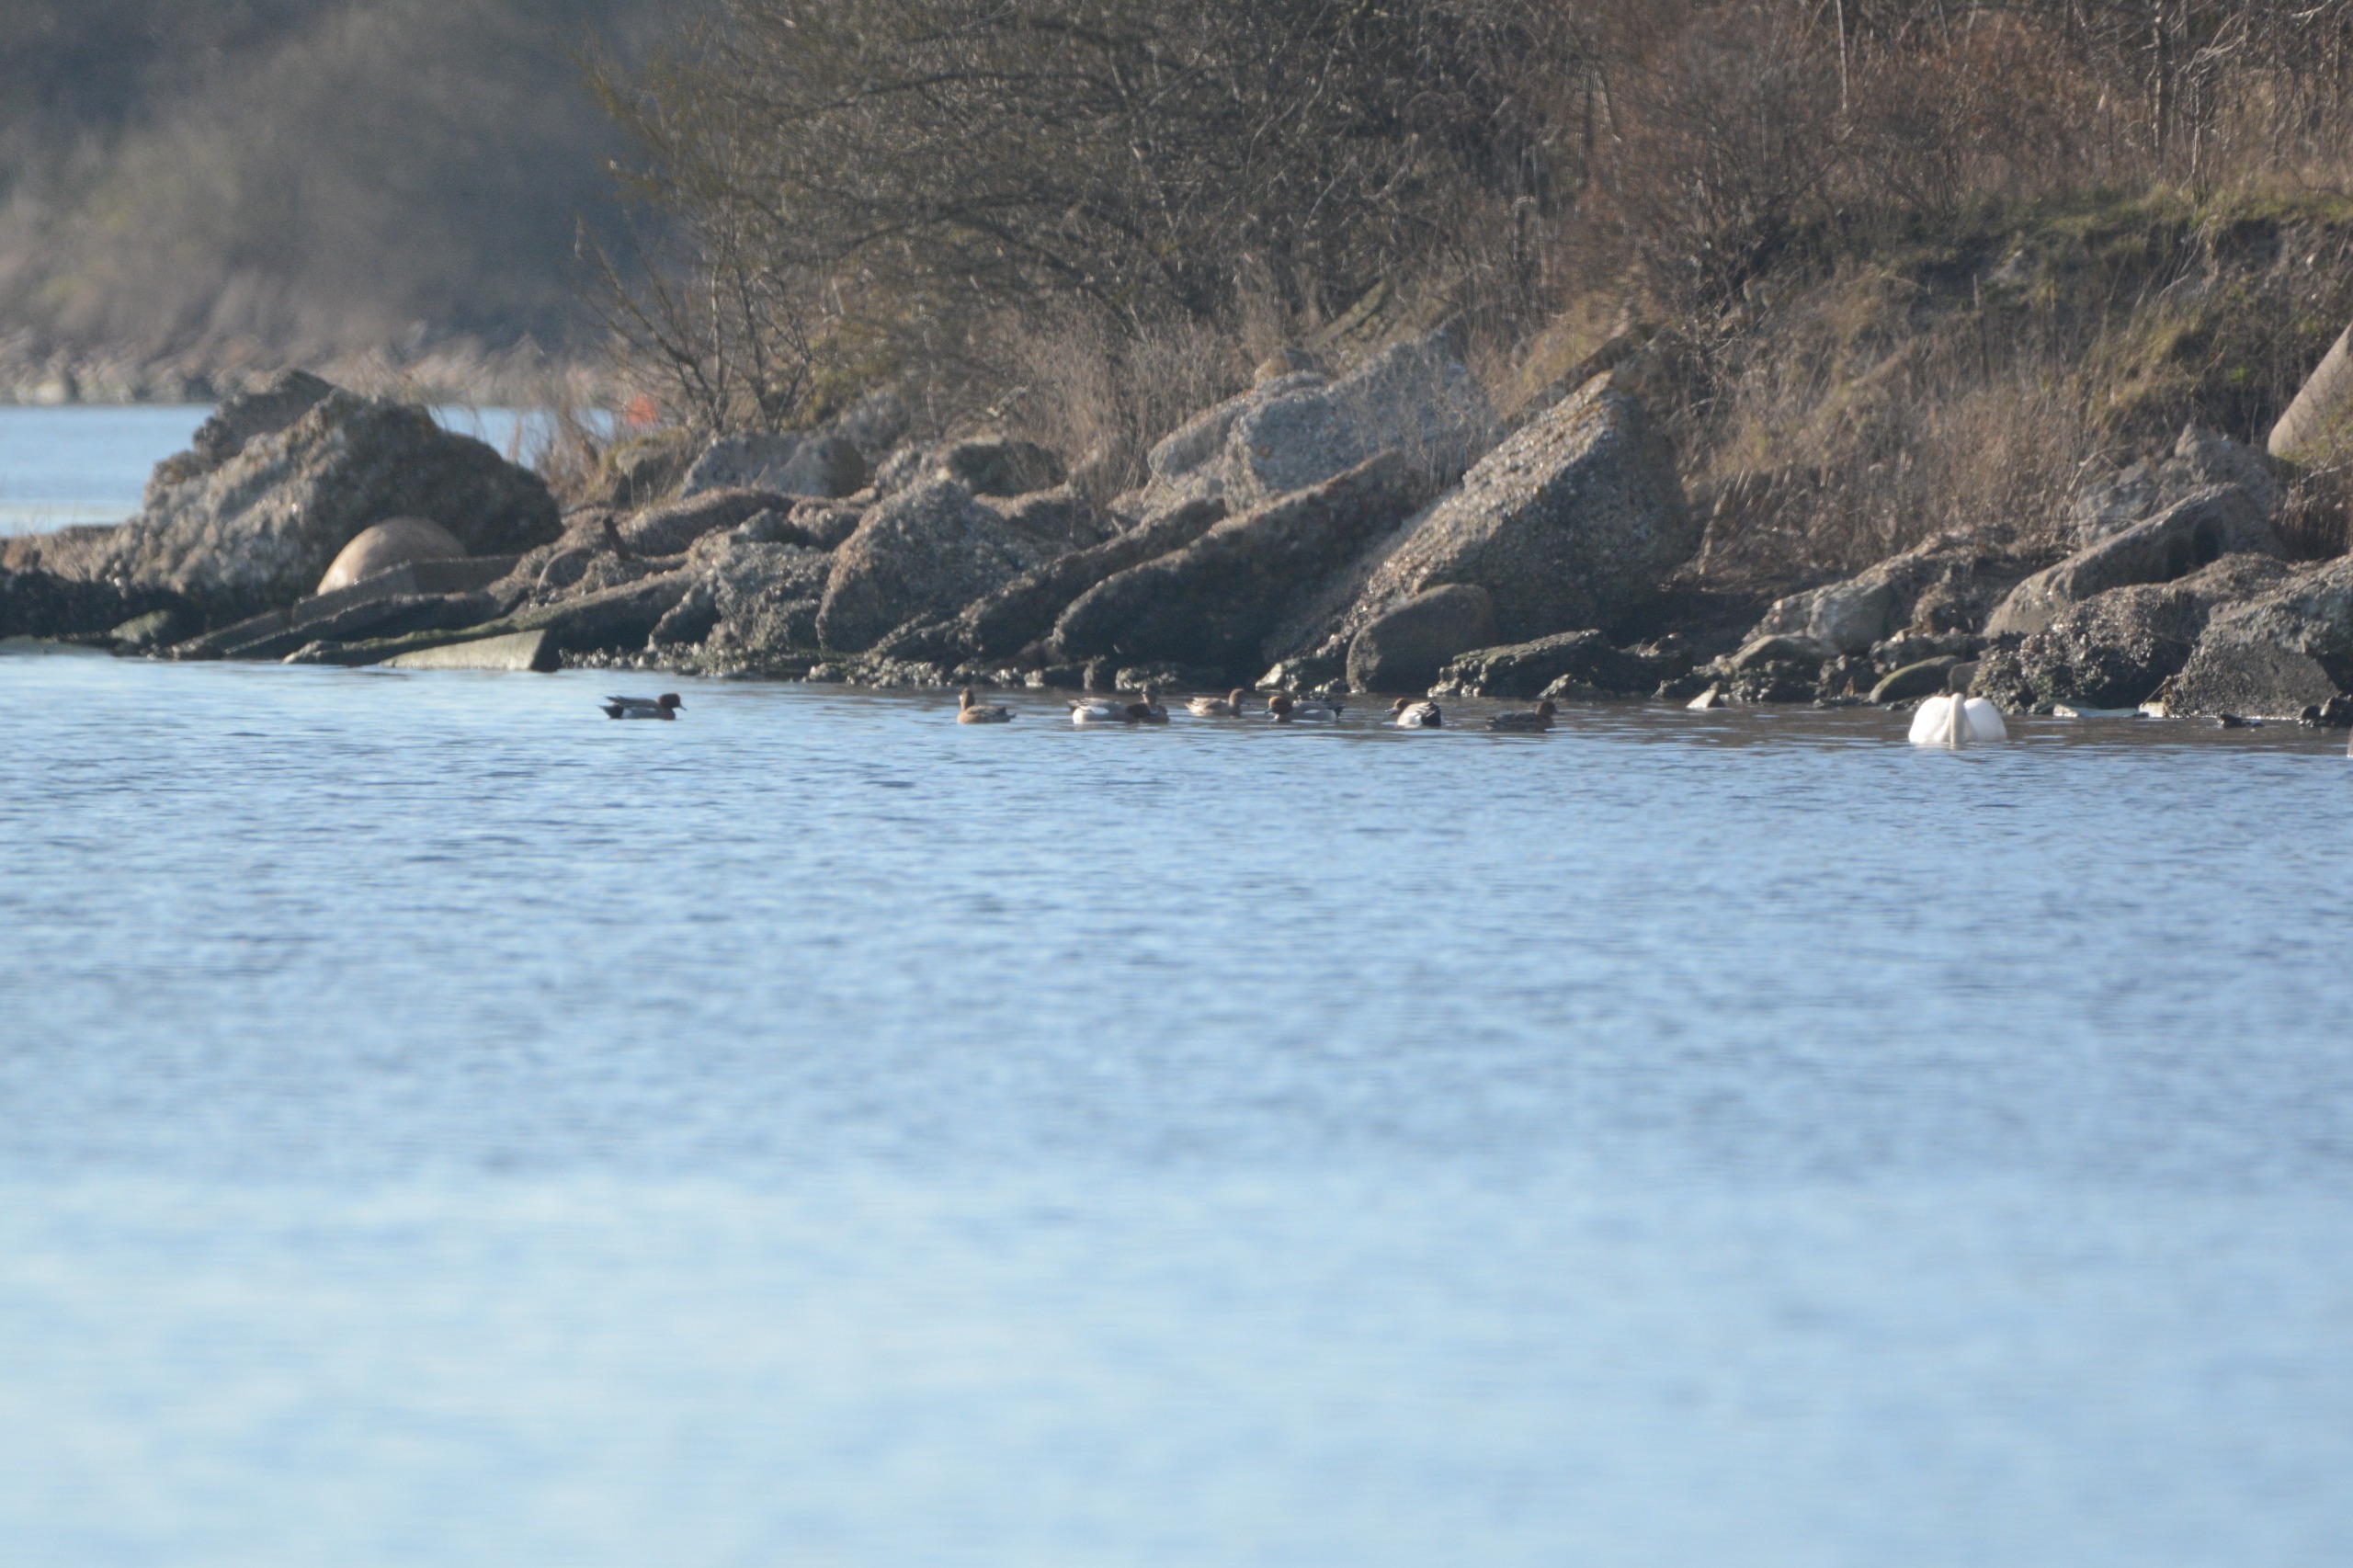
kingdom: Animalia
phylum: Chordata
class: Aves
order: Anseriformes
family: Anatidae
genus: Mareca
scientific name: Mareca penelope
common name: Pibeand
